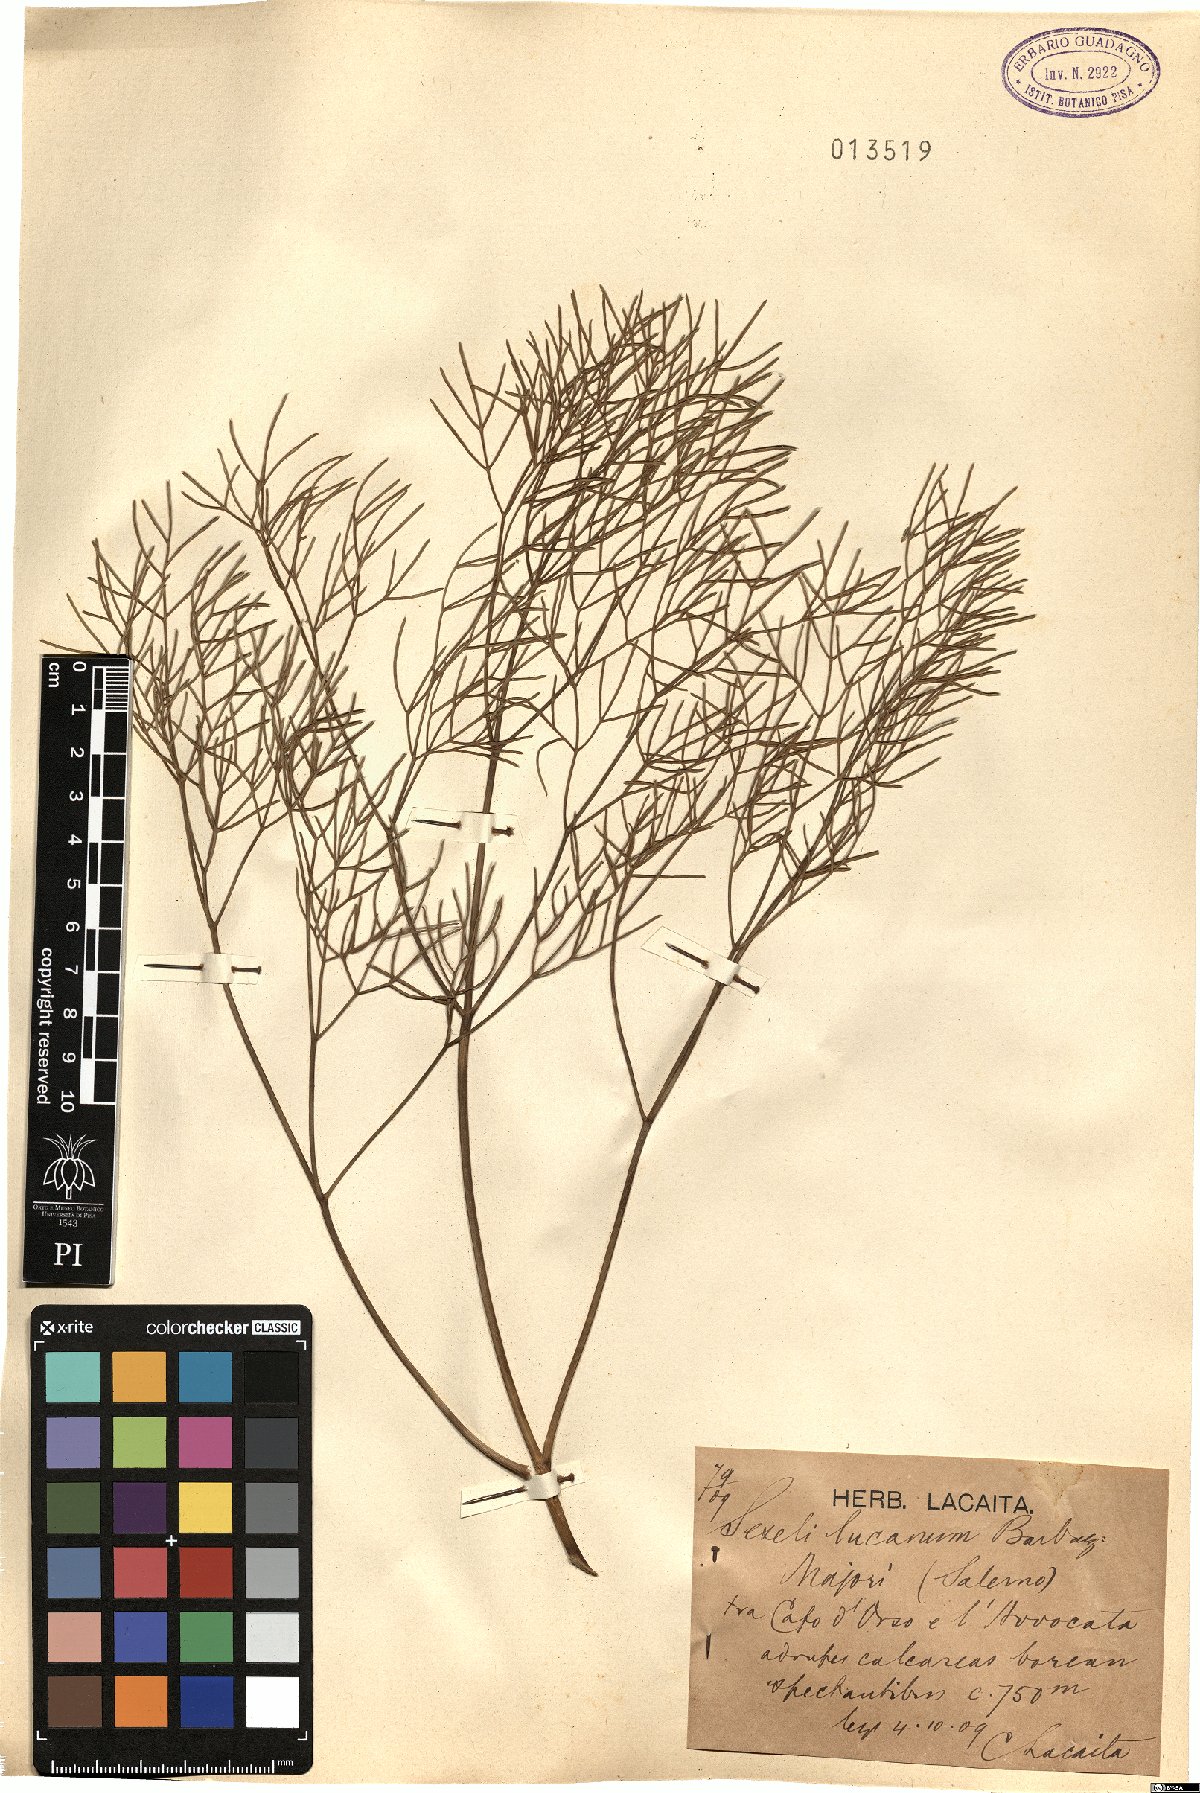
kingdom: Plantae
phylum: Tracheophyta
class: Magnoliopsida
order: Apiales
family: Apiaceae
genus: Athamanta
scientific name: Athamanta ramosissima
